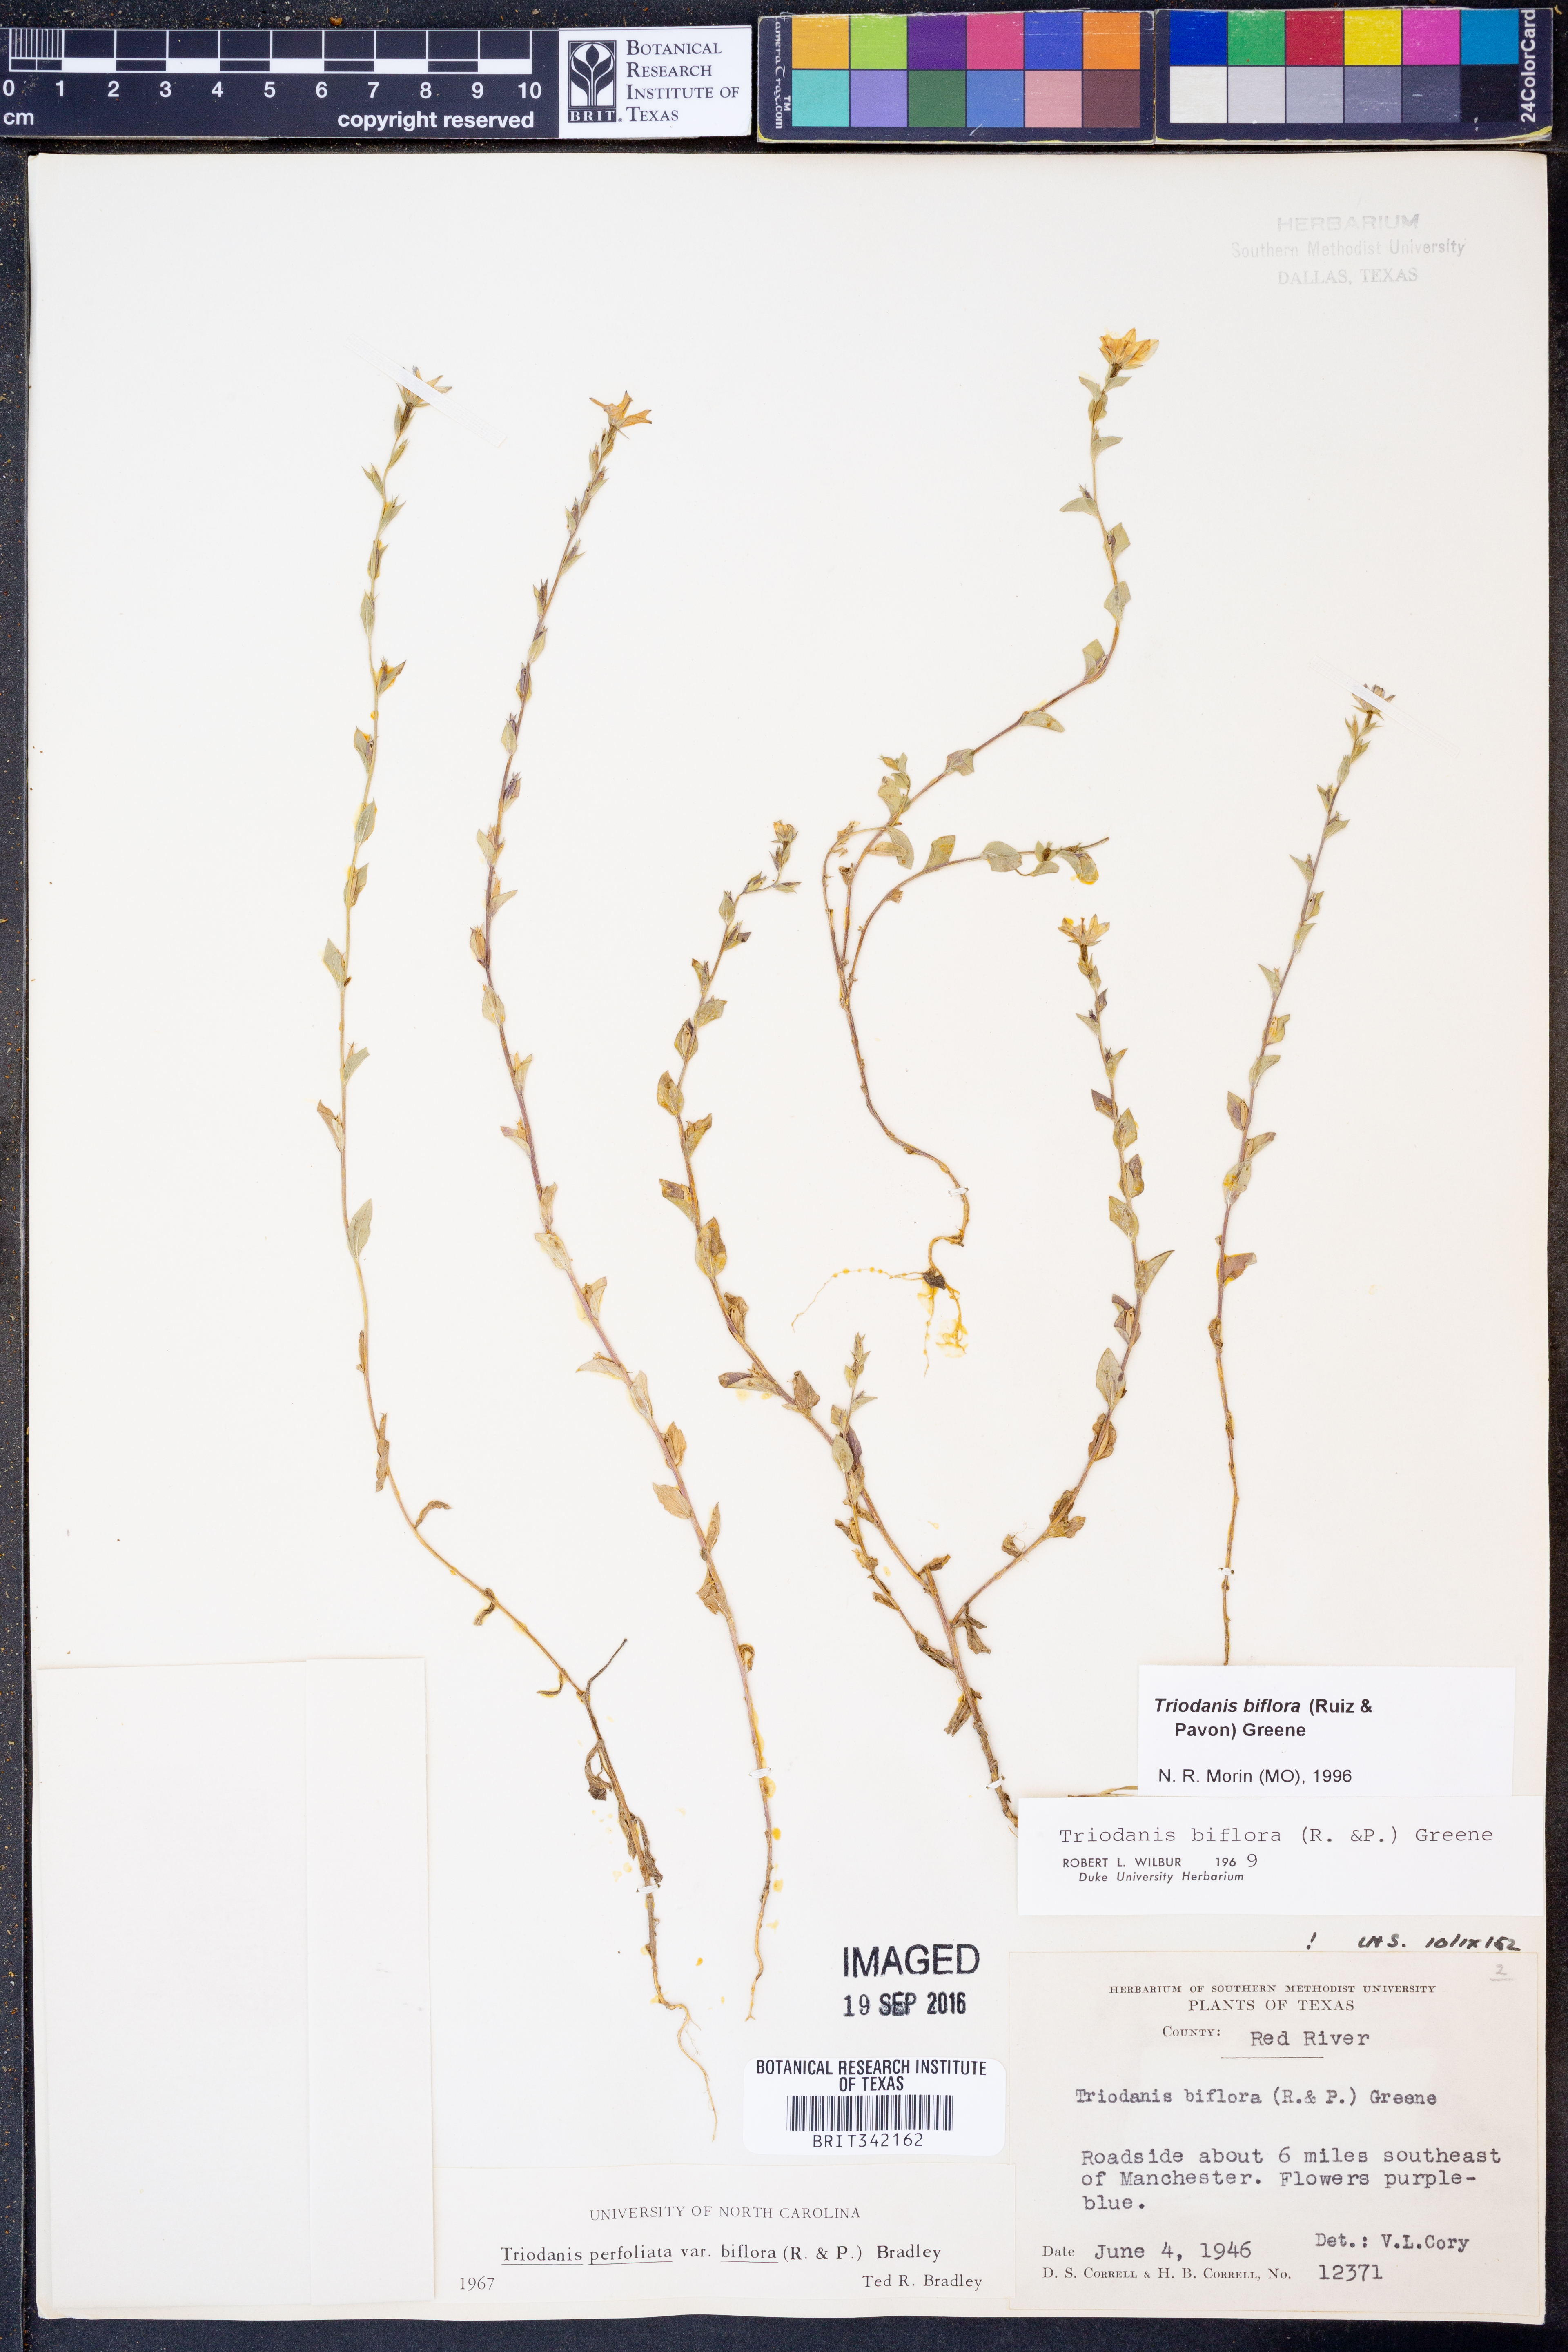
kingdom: Plantae
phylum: Tracheophyta
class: Magnoliopsida
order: Asterales
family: Campanulaceae
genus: Triodanis
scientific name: Triodanis perfoliata
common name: Clasping venus' looking-glass
